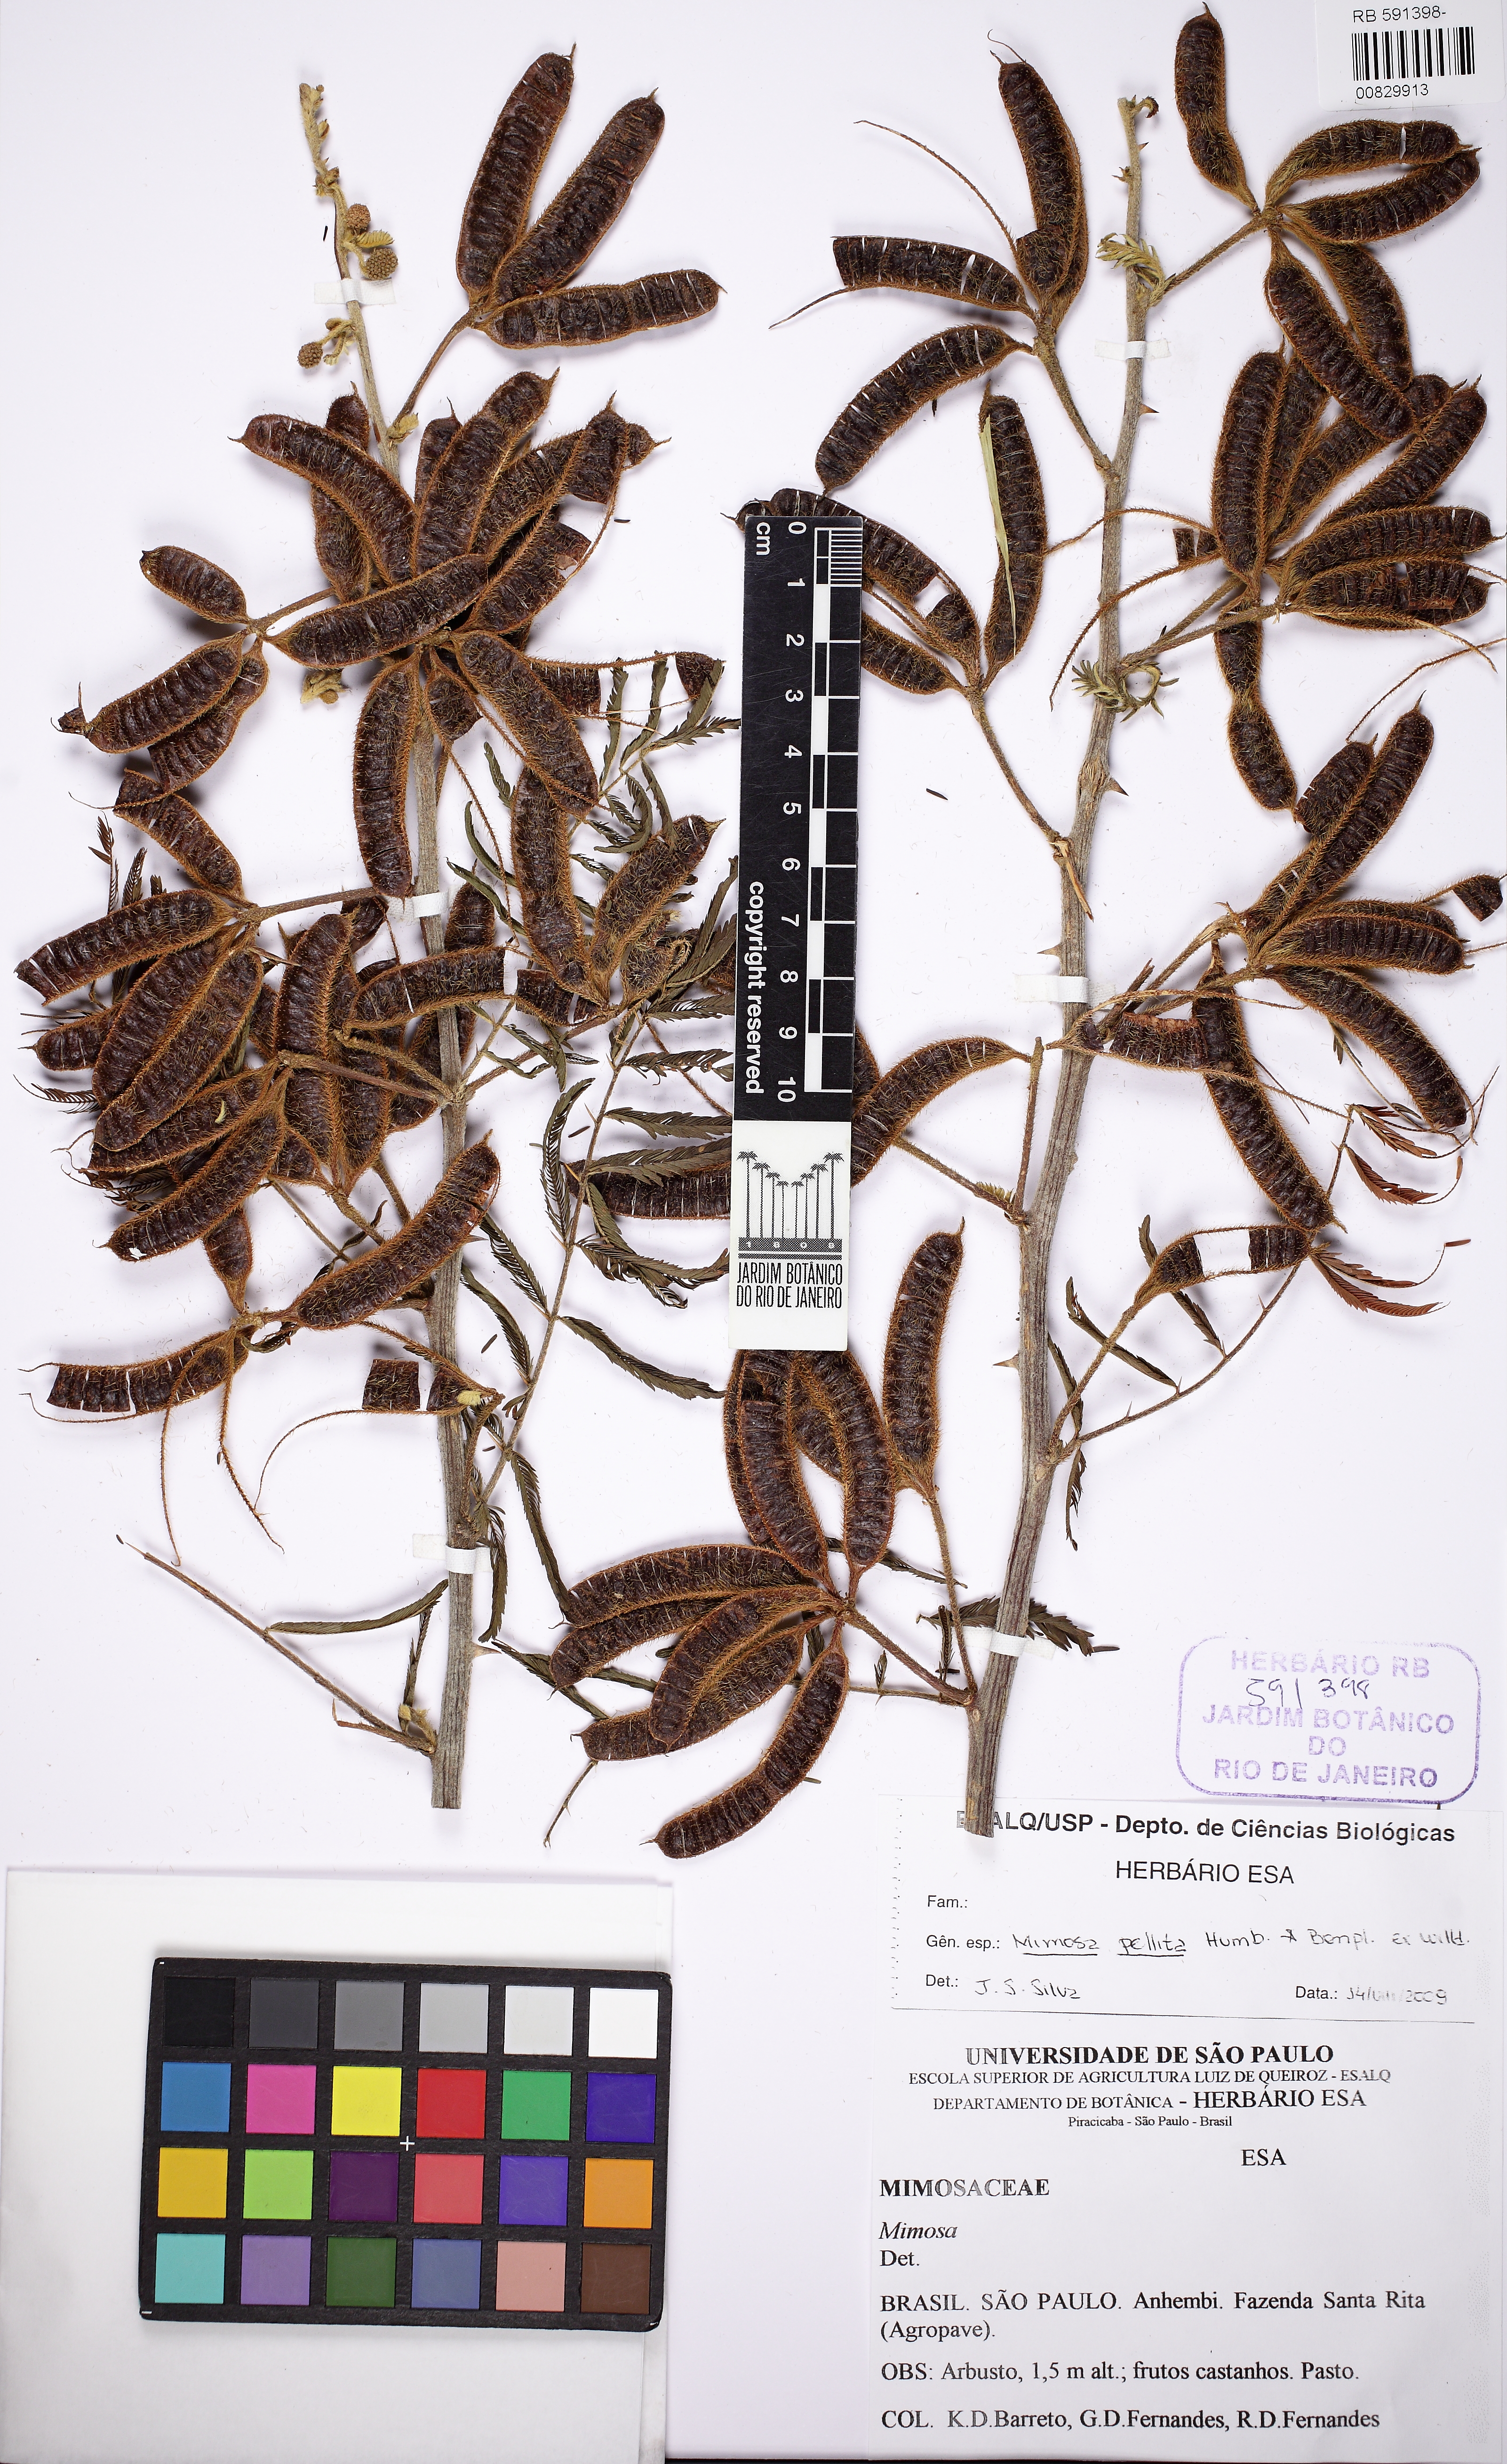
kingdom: Plantae
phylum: Tracheophyta
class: Magnoliopsida
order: Fabales
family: Fabaceae
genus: Mimosa
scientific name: Mimosa pigra
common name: Black mimosa
